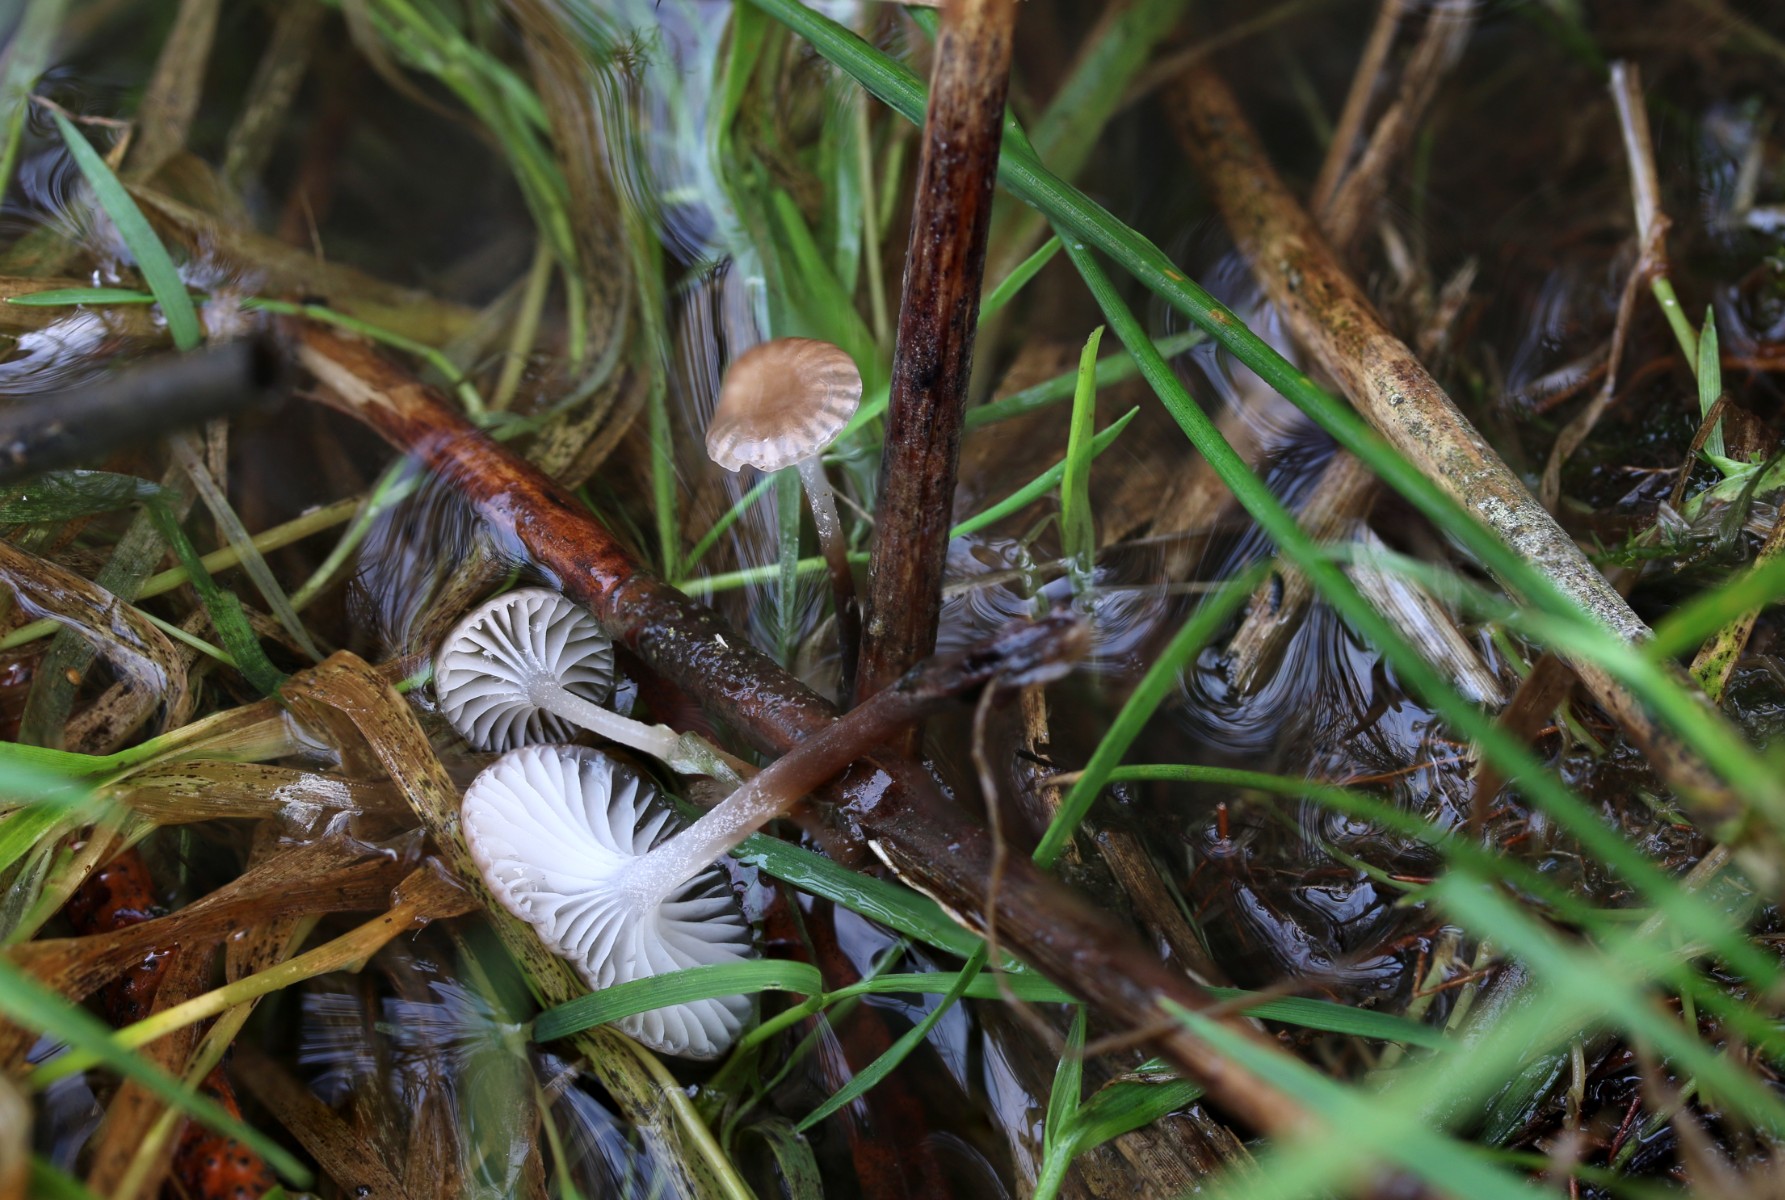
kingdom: Fungi
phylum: Basidiomycota
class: Agaricomycetes
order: Agaricales
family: Mycenaceae
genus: Mycena
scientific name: Mycena belliae
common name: tagrørs-huesvamp
